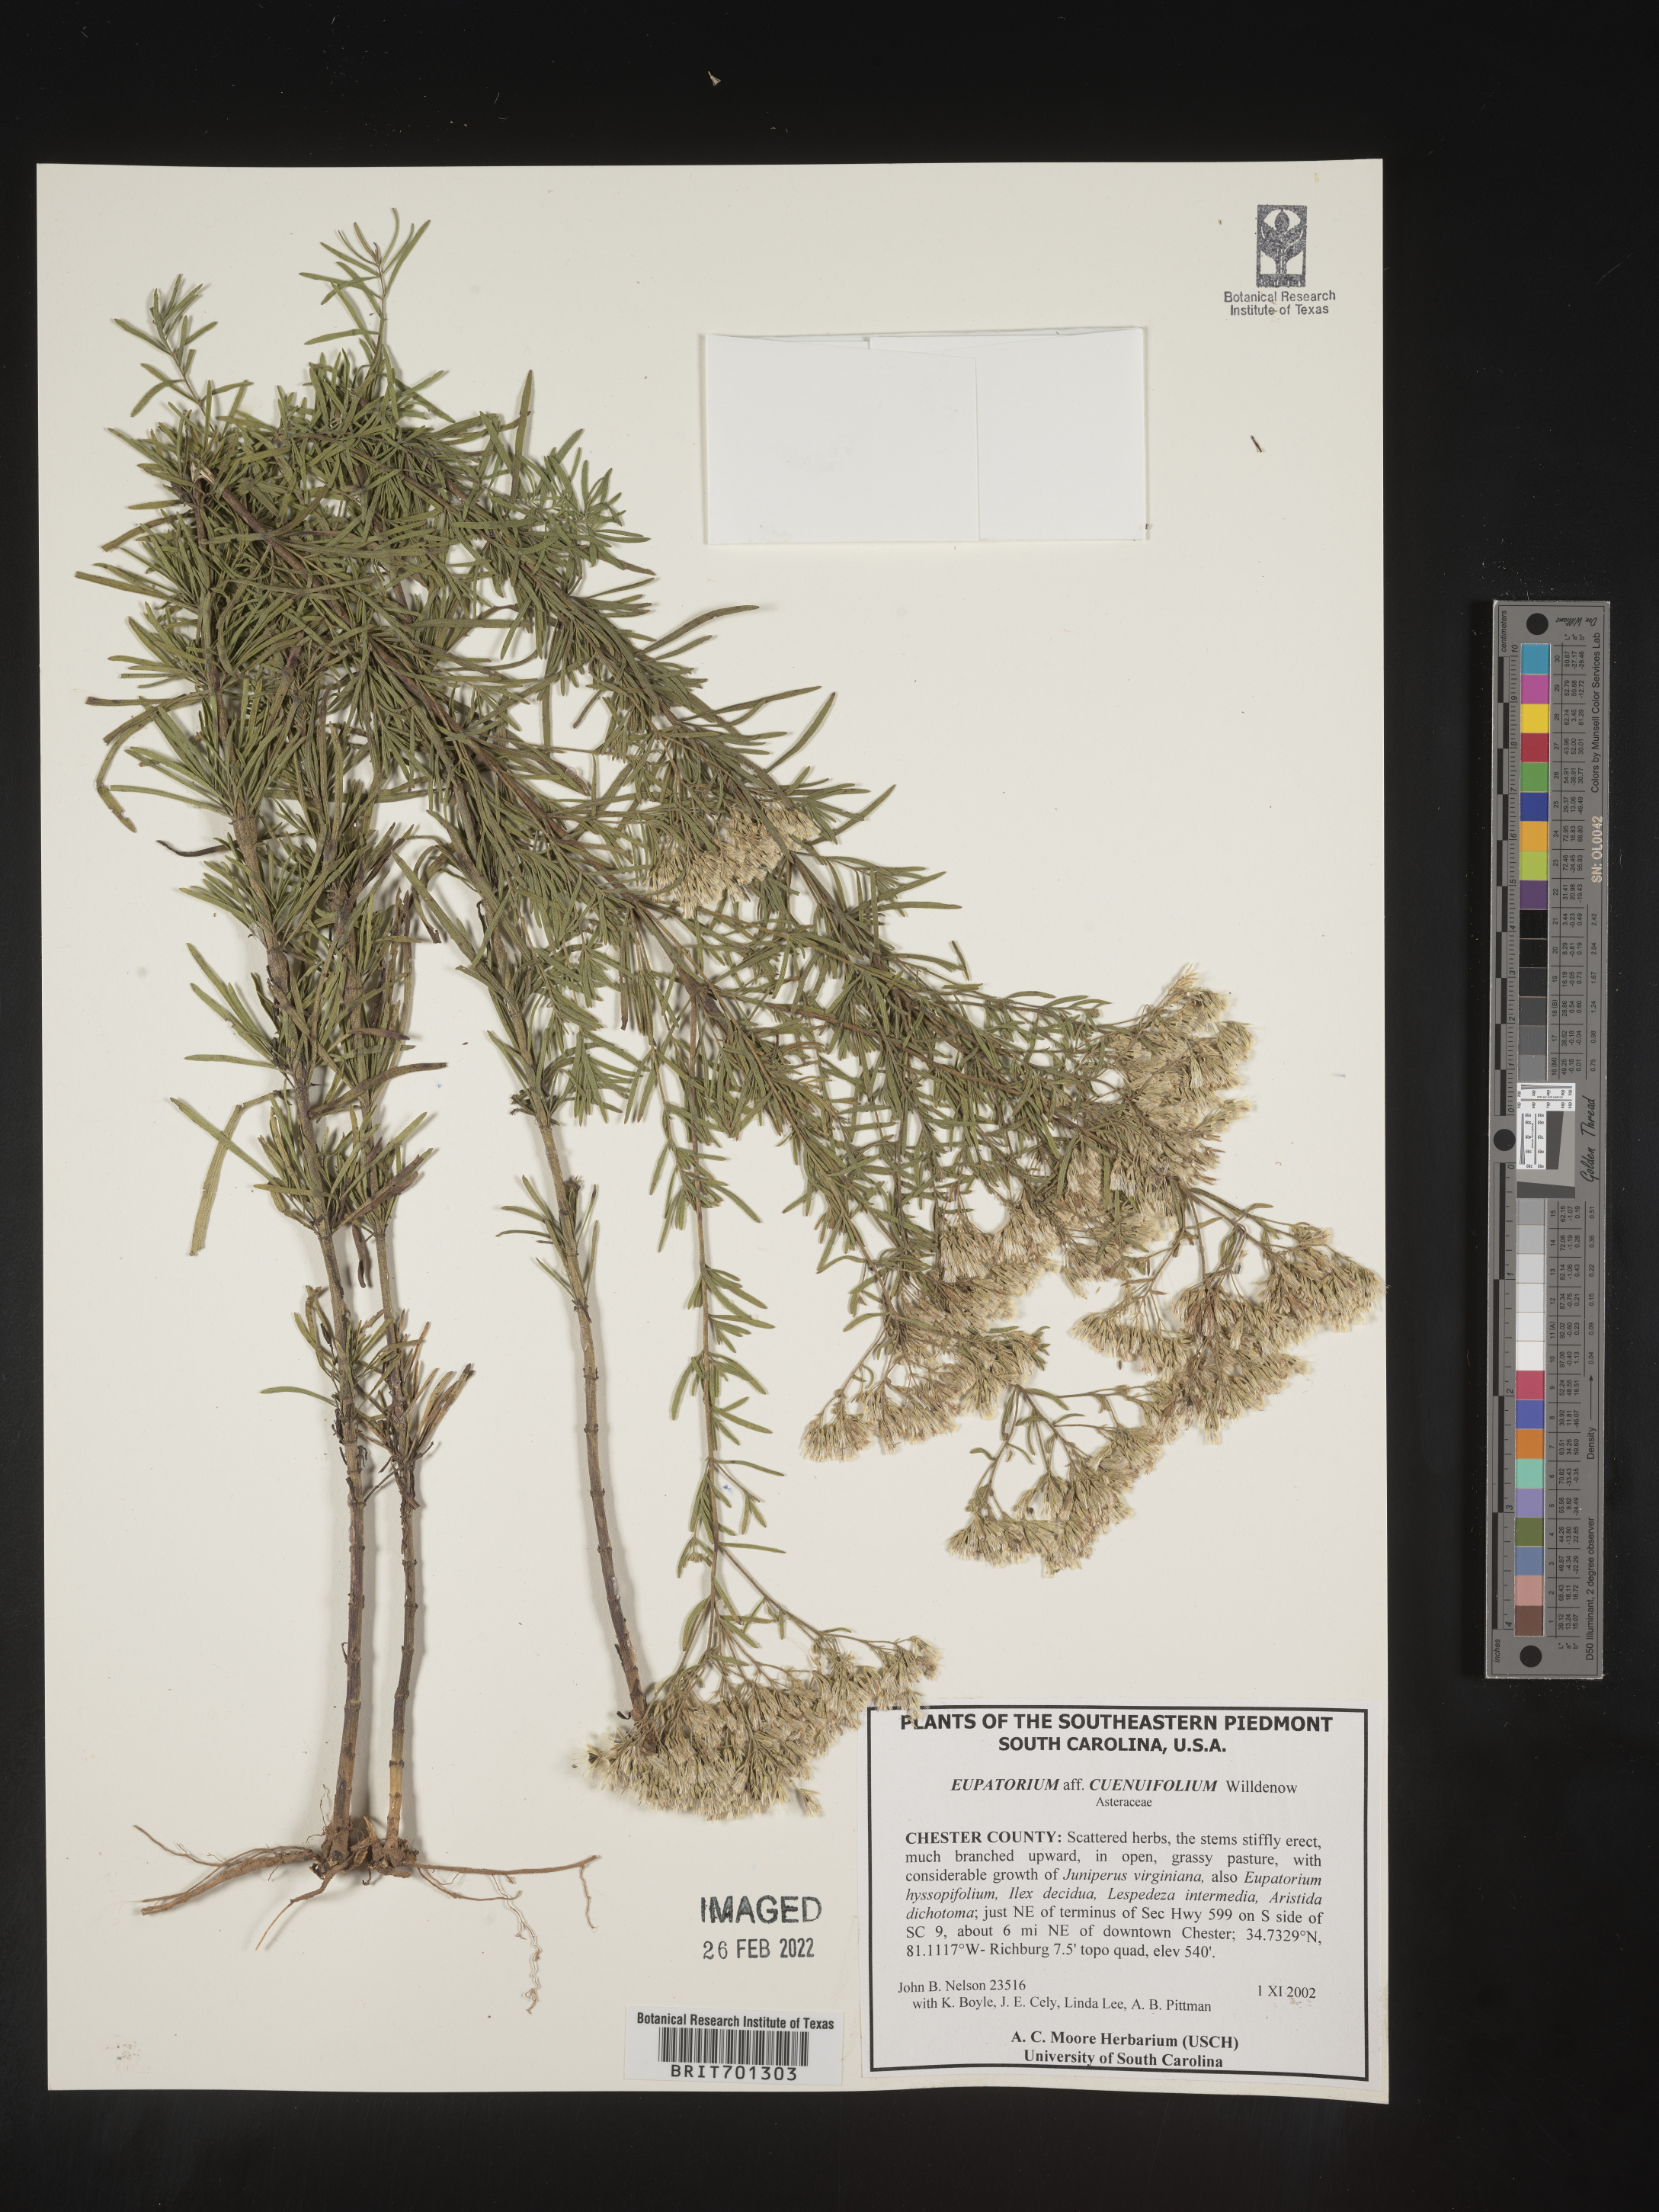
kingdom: Plantae
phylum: Tracheophyta
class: Magnoliopsida
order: Asterales
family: Asteraceae
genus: Eupatorium
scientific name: Eupatorium linearifolium
